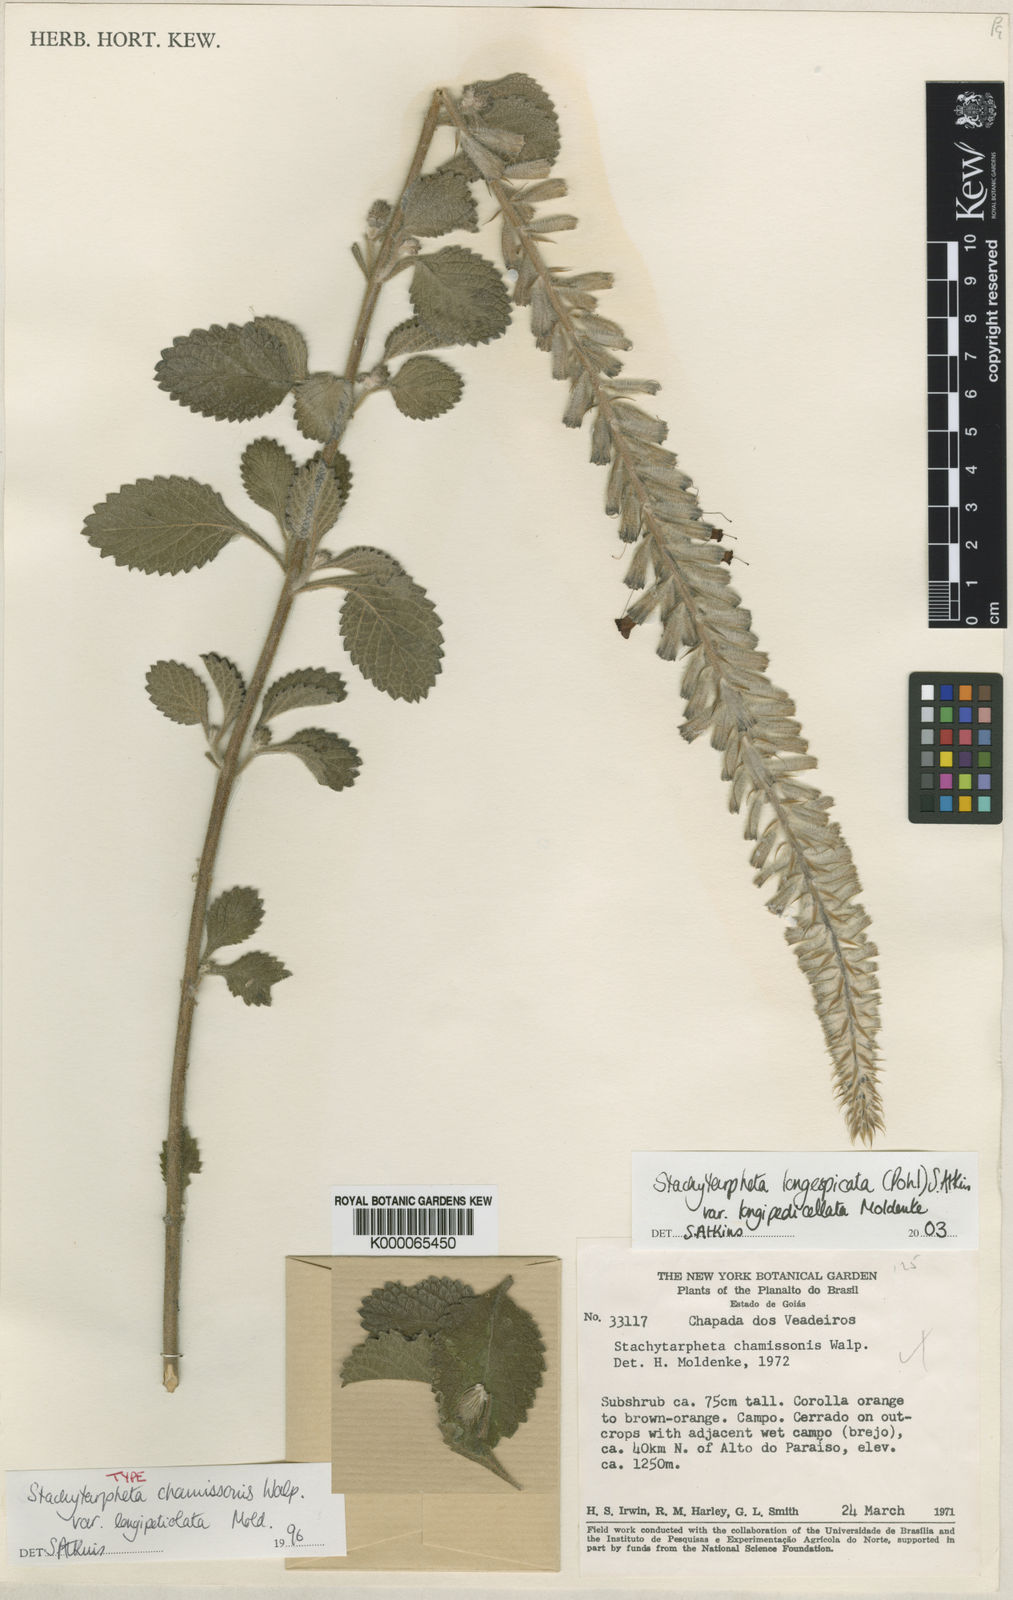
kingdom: Plantae
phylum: Tracheophyta
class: Magnoliopsida
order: Lamiales
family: Verbenaceae
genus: Stachytarpheta
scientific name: Stachytarpheta longispicata
